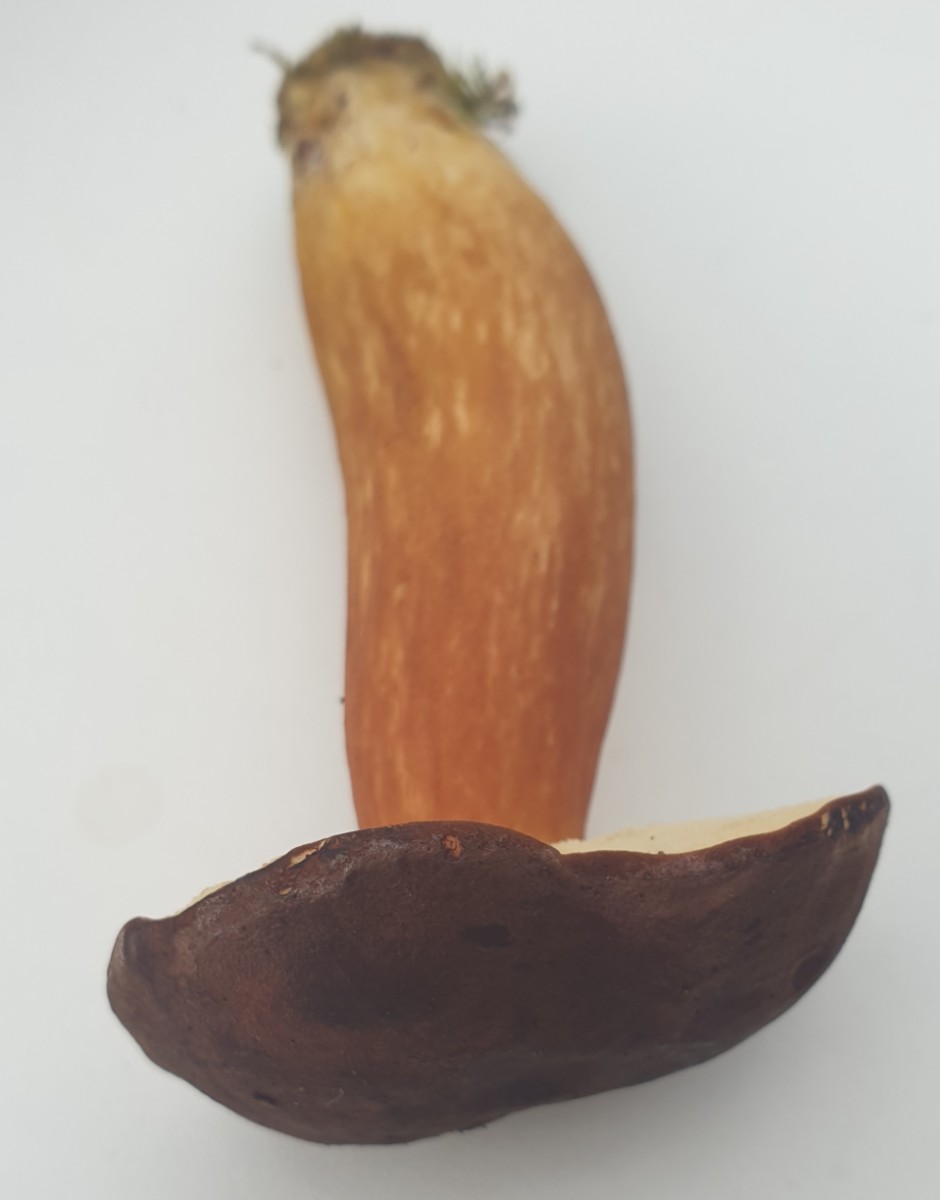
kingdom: Fungi
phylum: Basidiomycota
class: Agaricomycetes
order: Boletales
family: Boletaceae
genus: Imleria
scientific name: Imleria badia
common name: brunstokket rørhat
